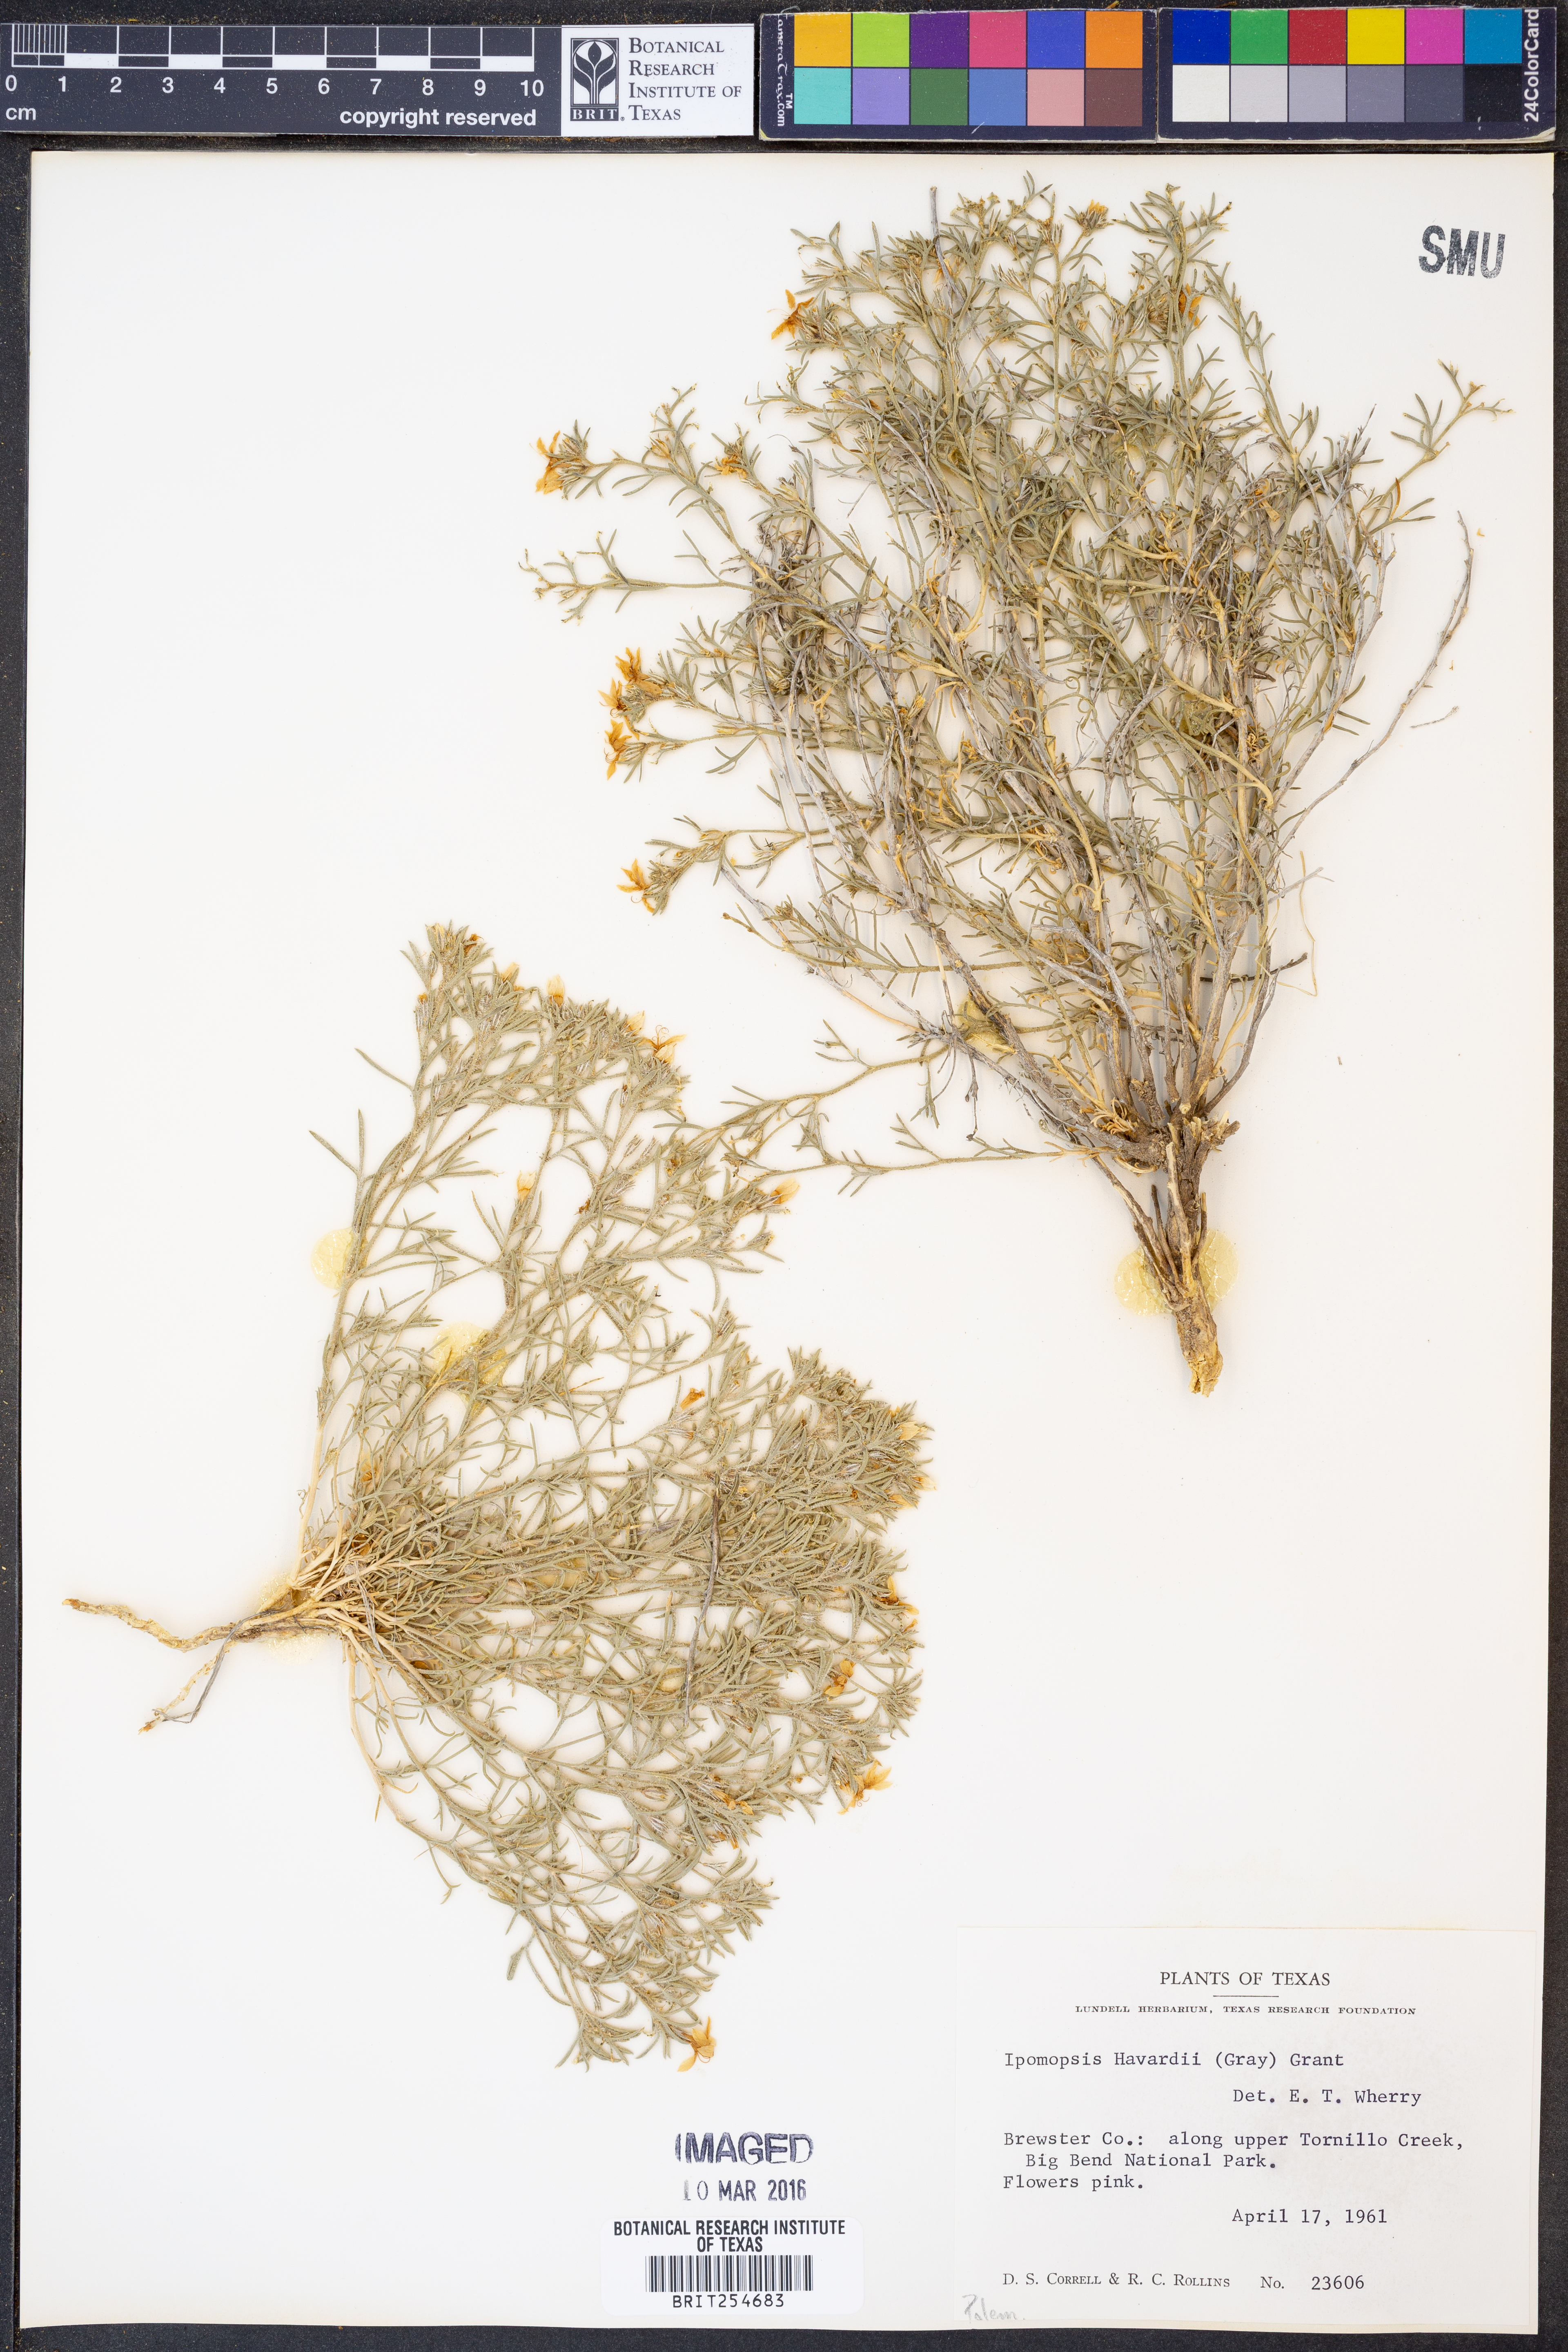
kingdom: Plantae
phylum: Tracheophyta
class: Magnoliopsida
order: Ericales
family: Polemoniaceae
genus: Dayia
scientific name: Dayia havardii
